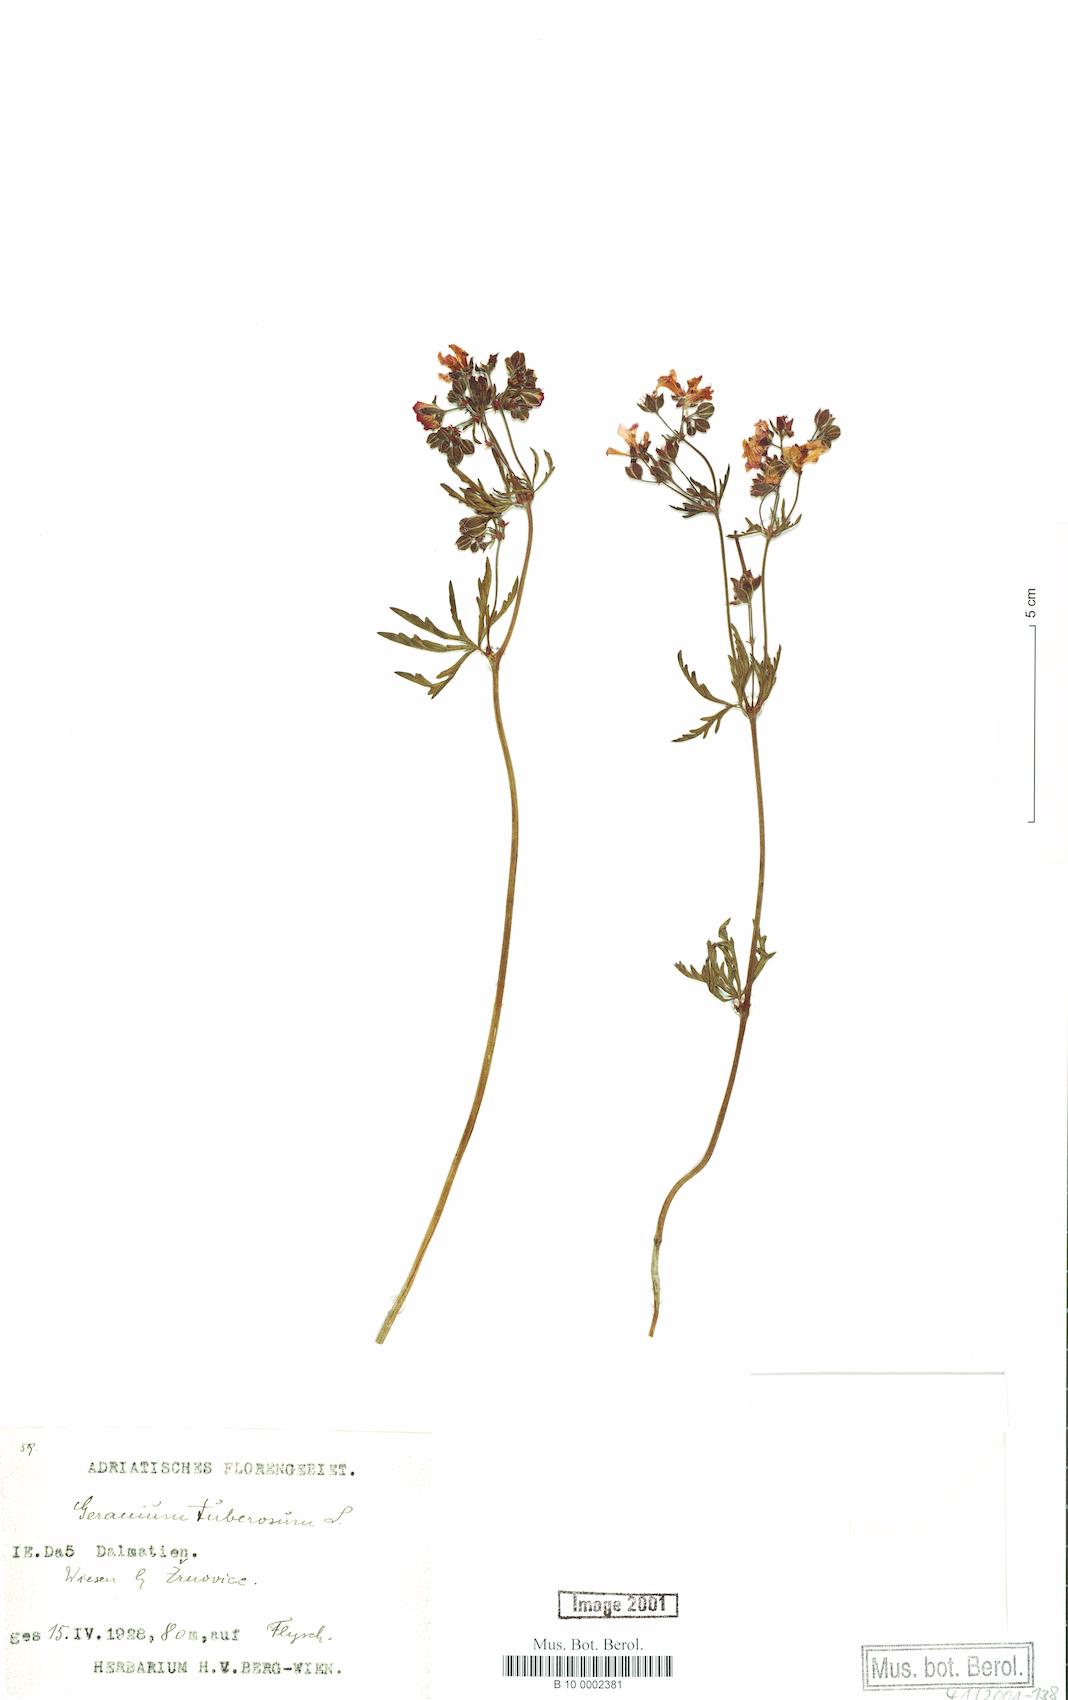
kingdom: Plantae
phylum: Tracheophyta
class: Magnoliopsida
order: Geraniales
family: Geraniaceae
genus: Geranium
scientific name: Geranium tuberosum
